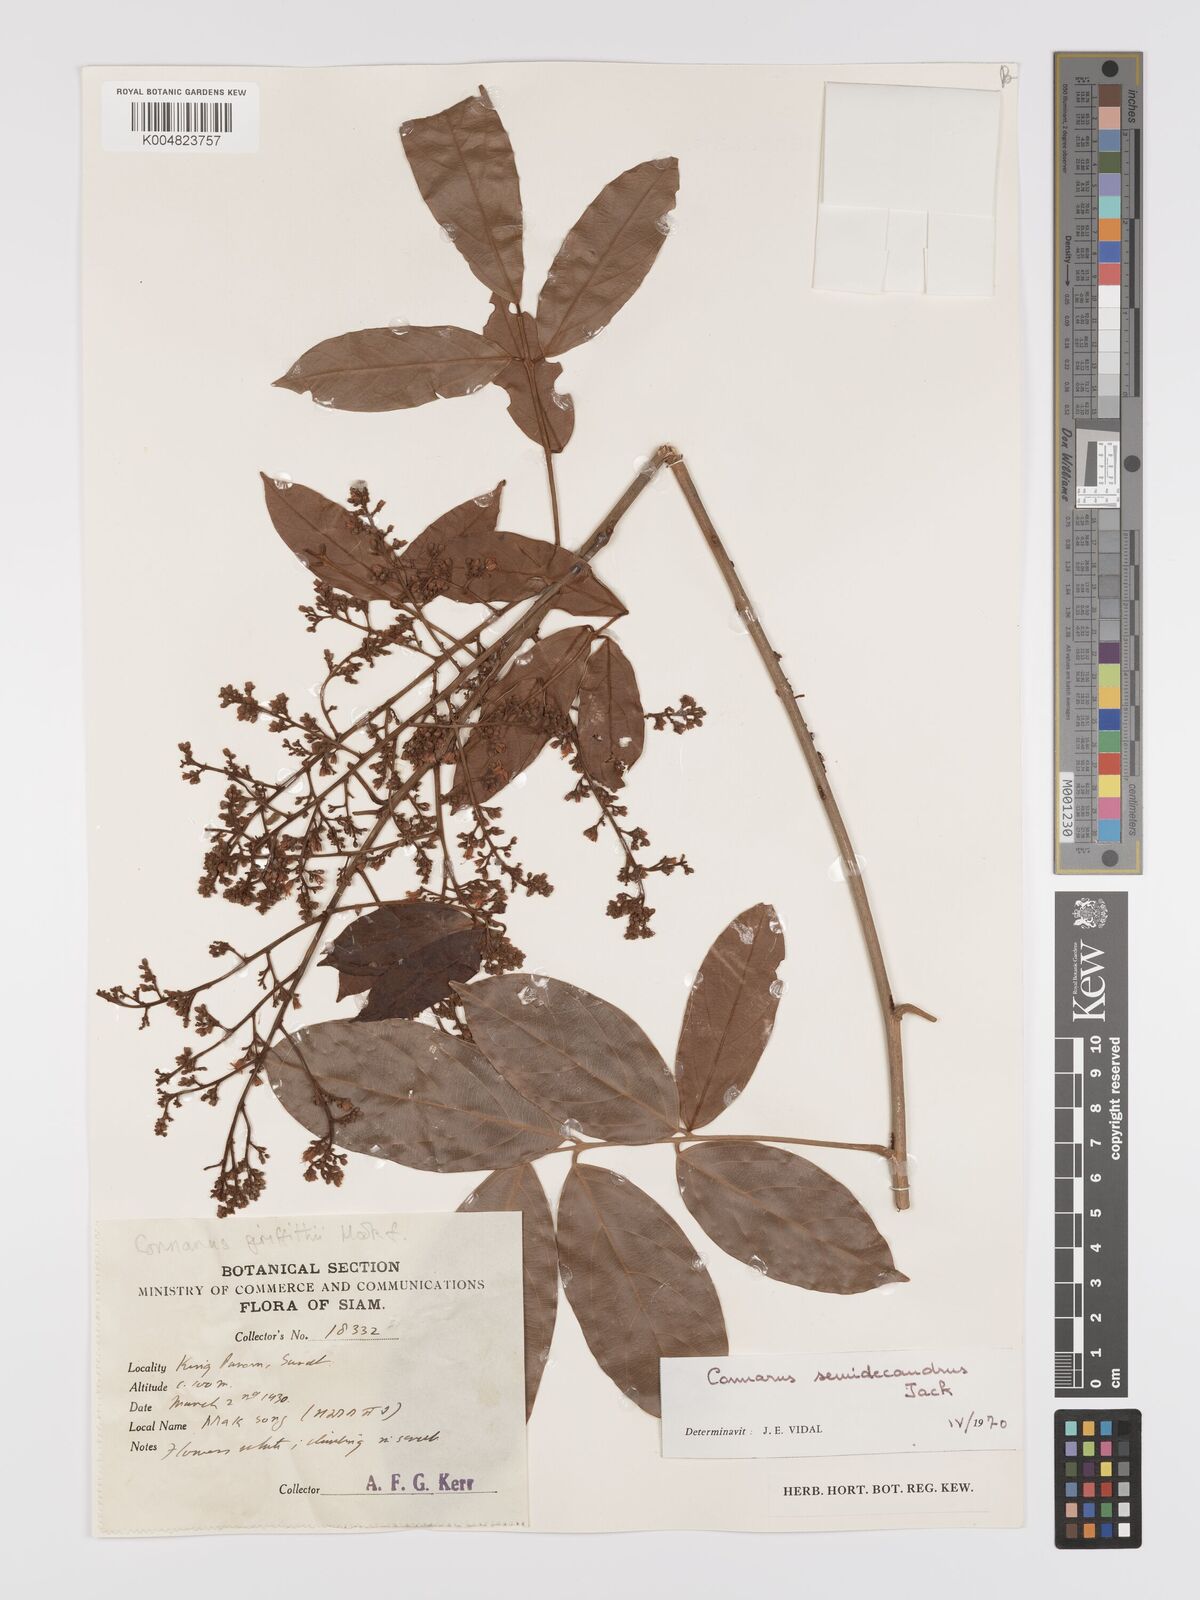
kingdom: Plantae
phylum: Tracheophyta
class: Magnoliopsida
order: Oxalidales
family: Connaraceae
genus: Connarus
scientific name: Connarus semidecandrus
